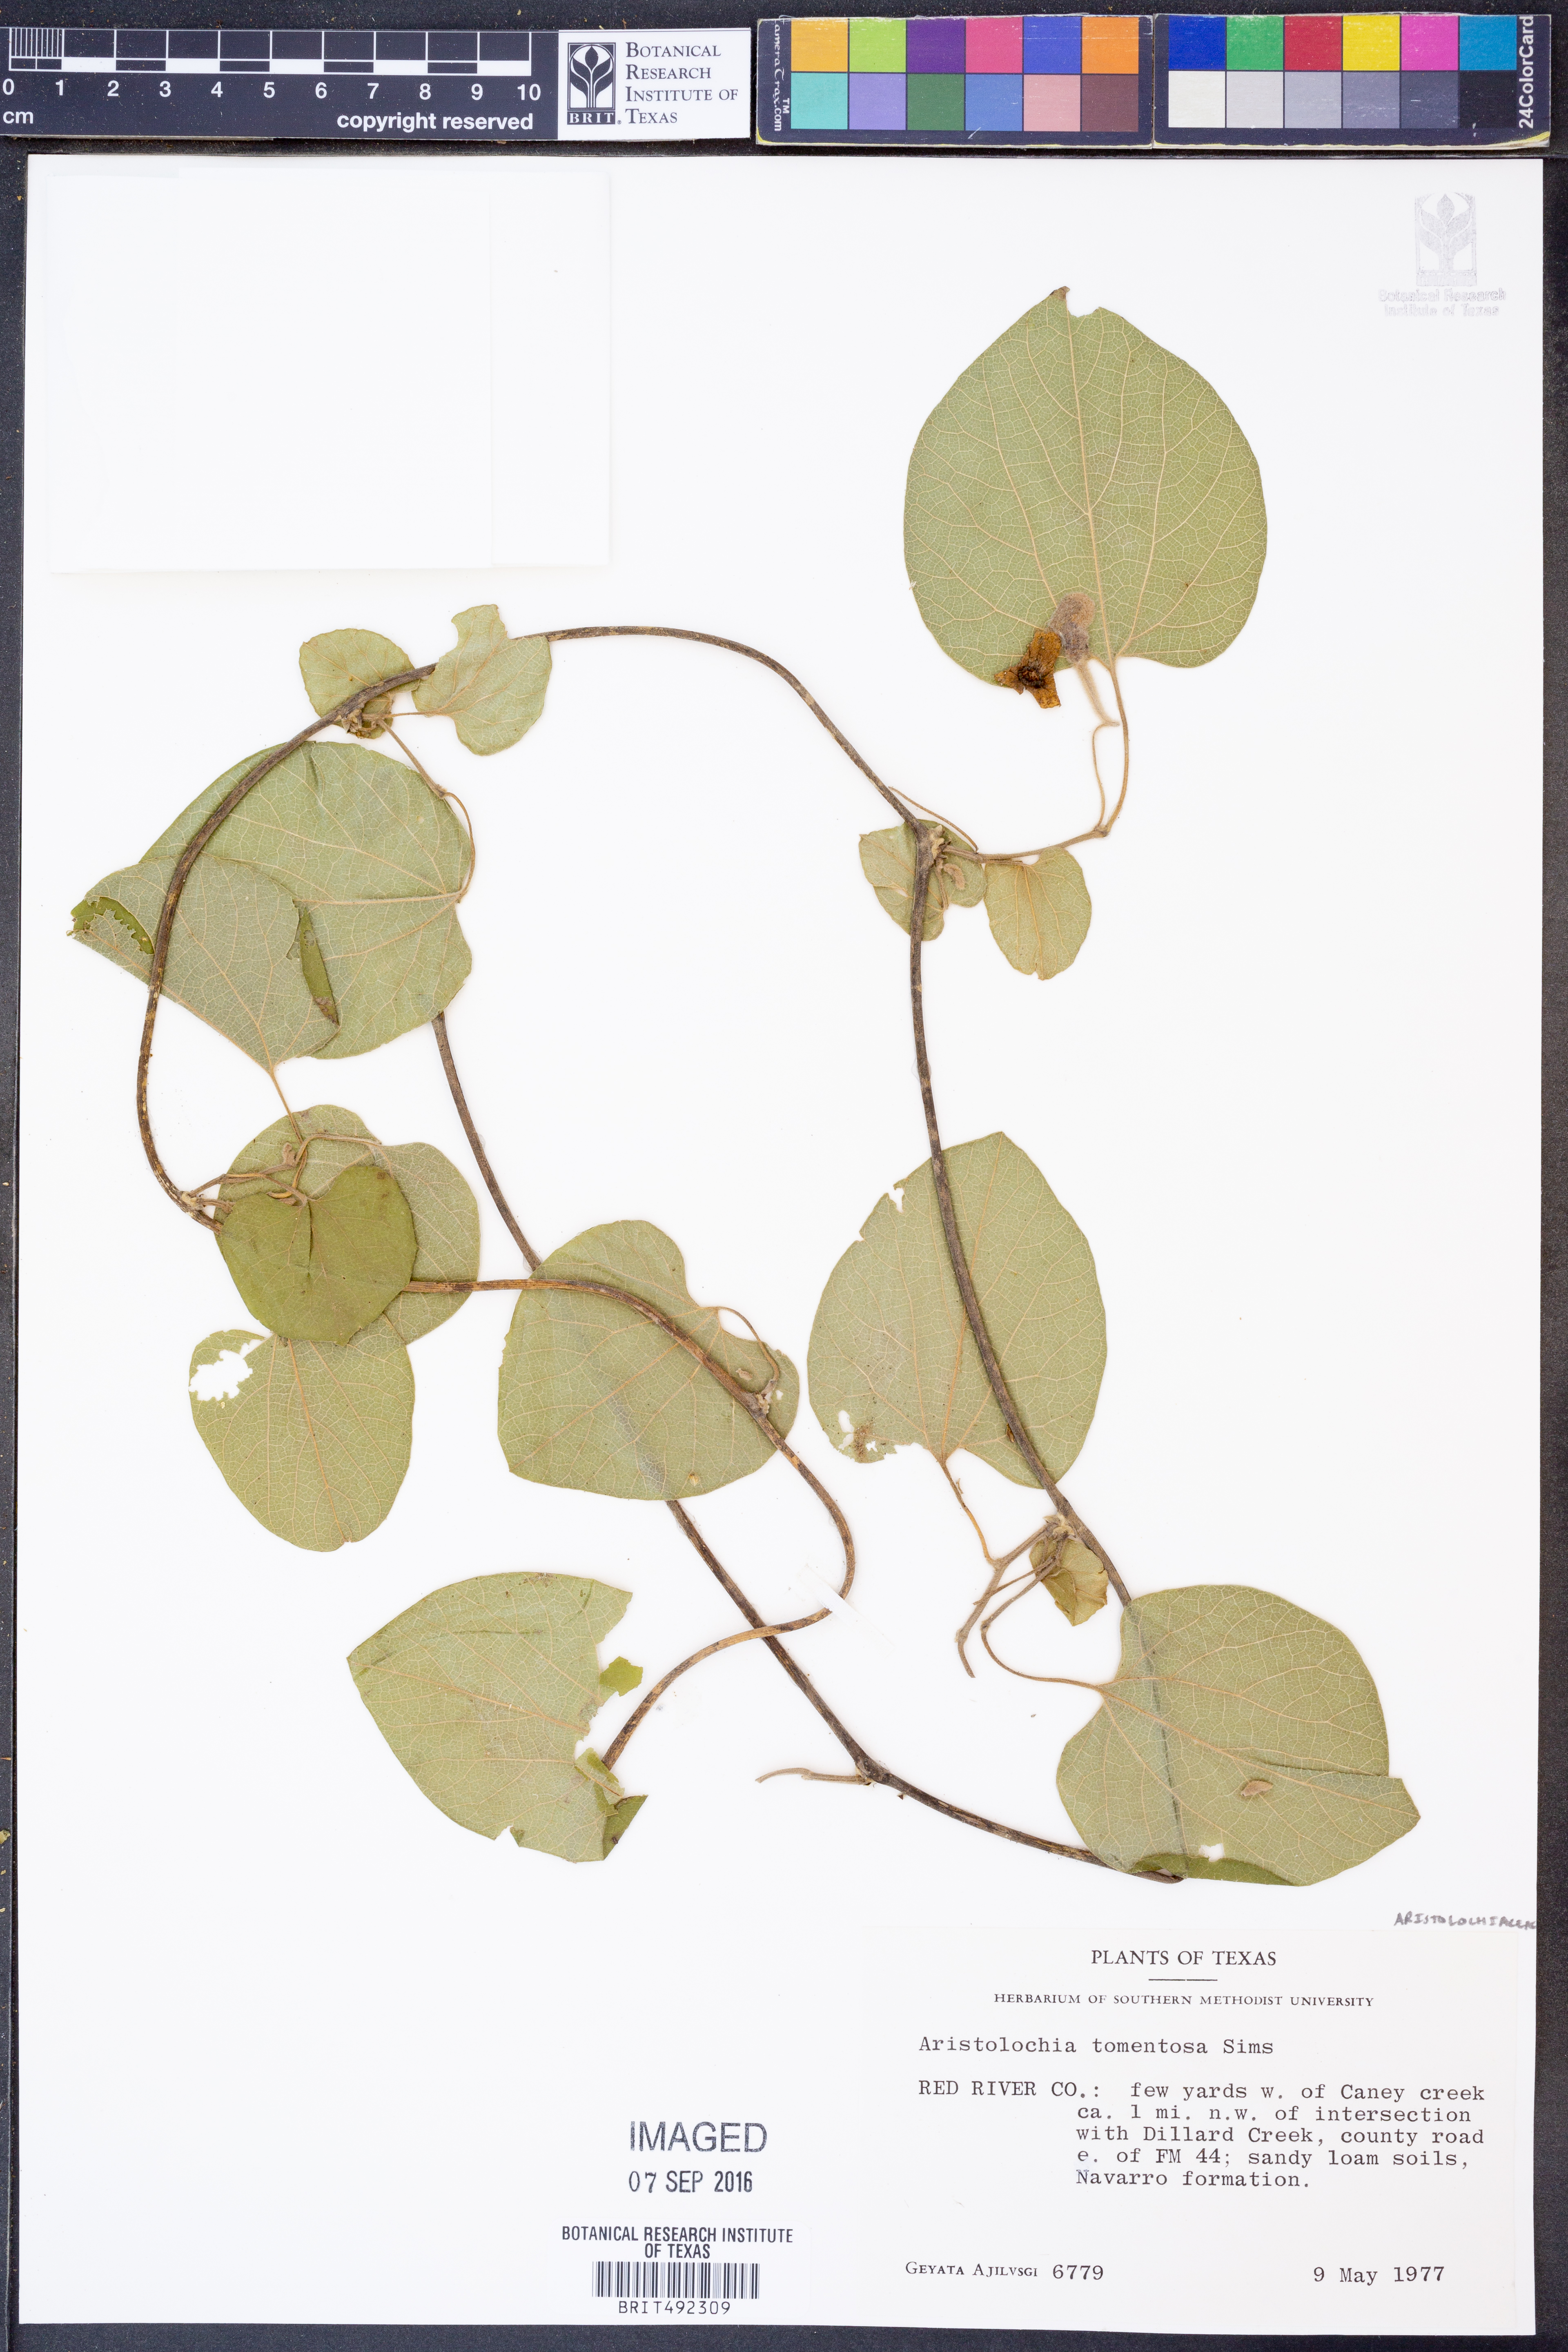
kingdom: Plantae
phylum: Tracheophyta
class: Magnoliopsida
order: Piperales
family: Aristolochiaceae
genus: Isotrema
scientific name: Isotrema tomentosum
